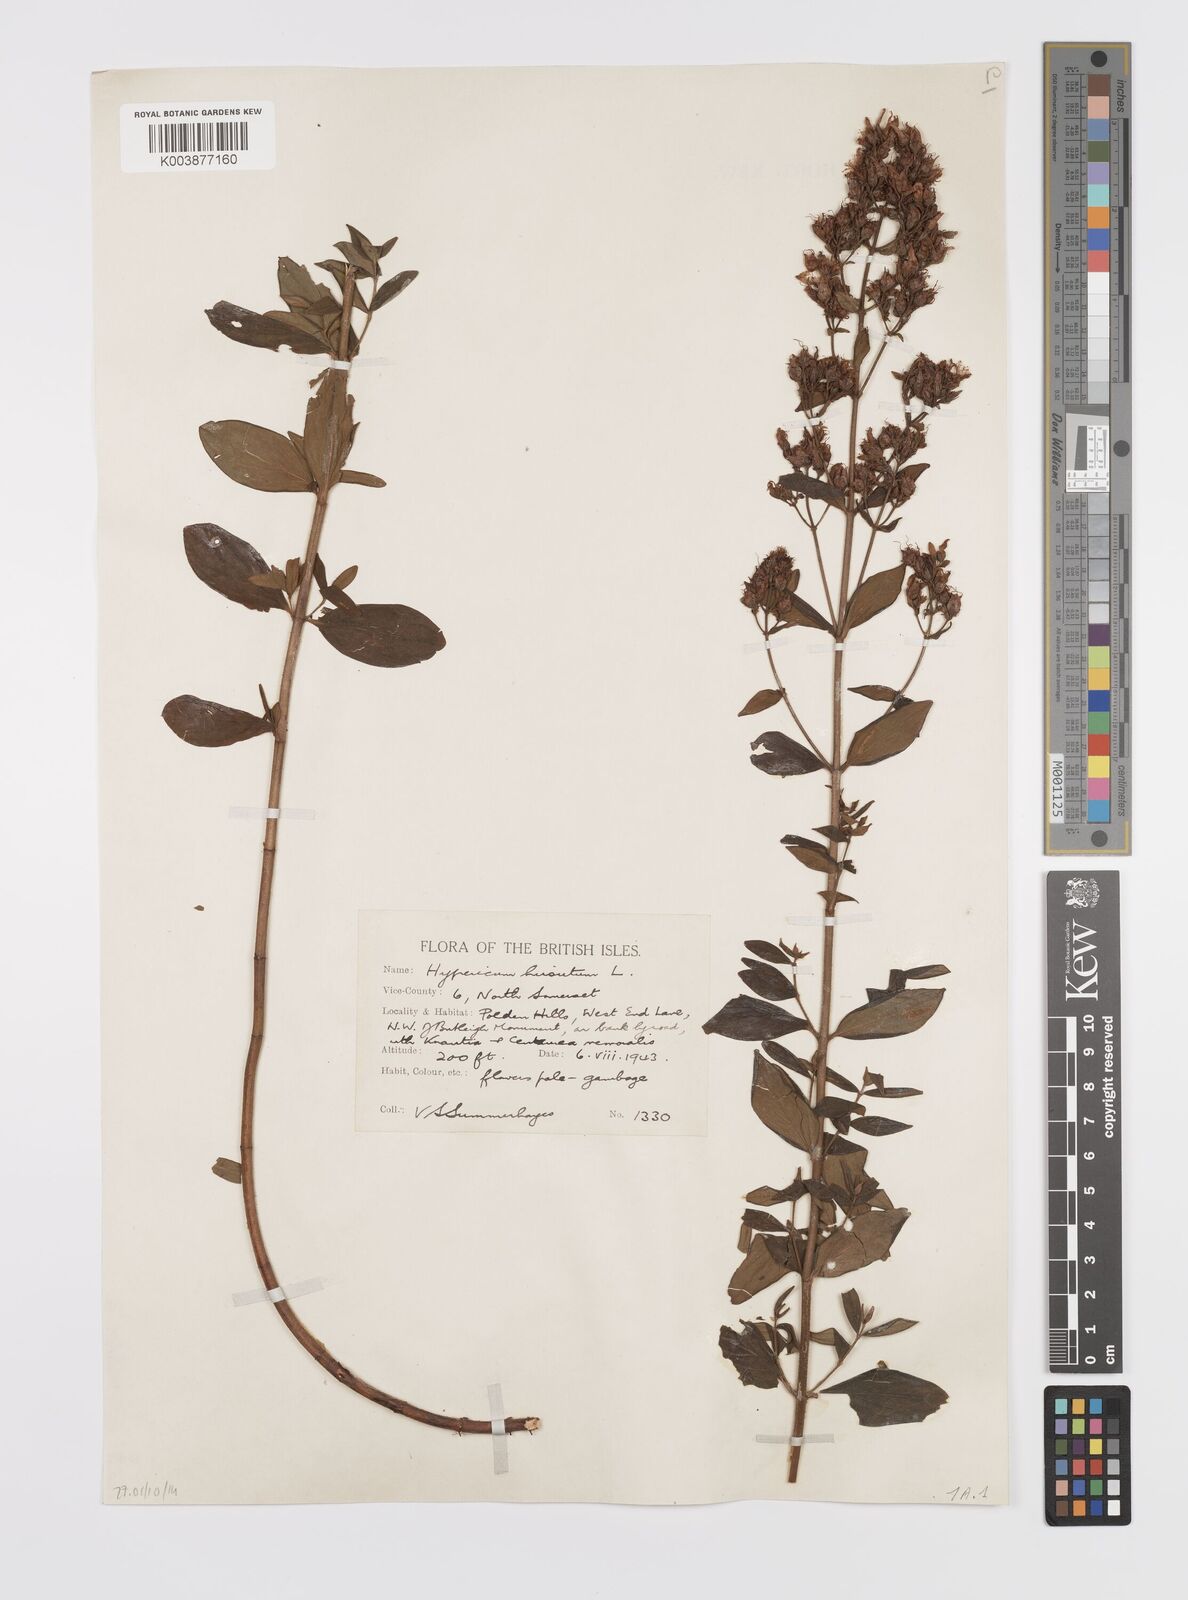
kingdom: Plantae
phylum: Tracheophyta
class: Magnoliopsida
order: Malpighiales
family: Hypericaceae
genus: Hypericum
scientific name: Hypericum hirsutum
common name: Hairy st. john's-wort
